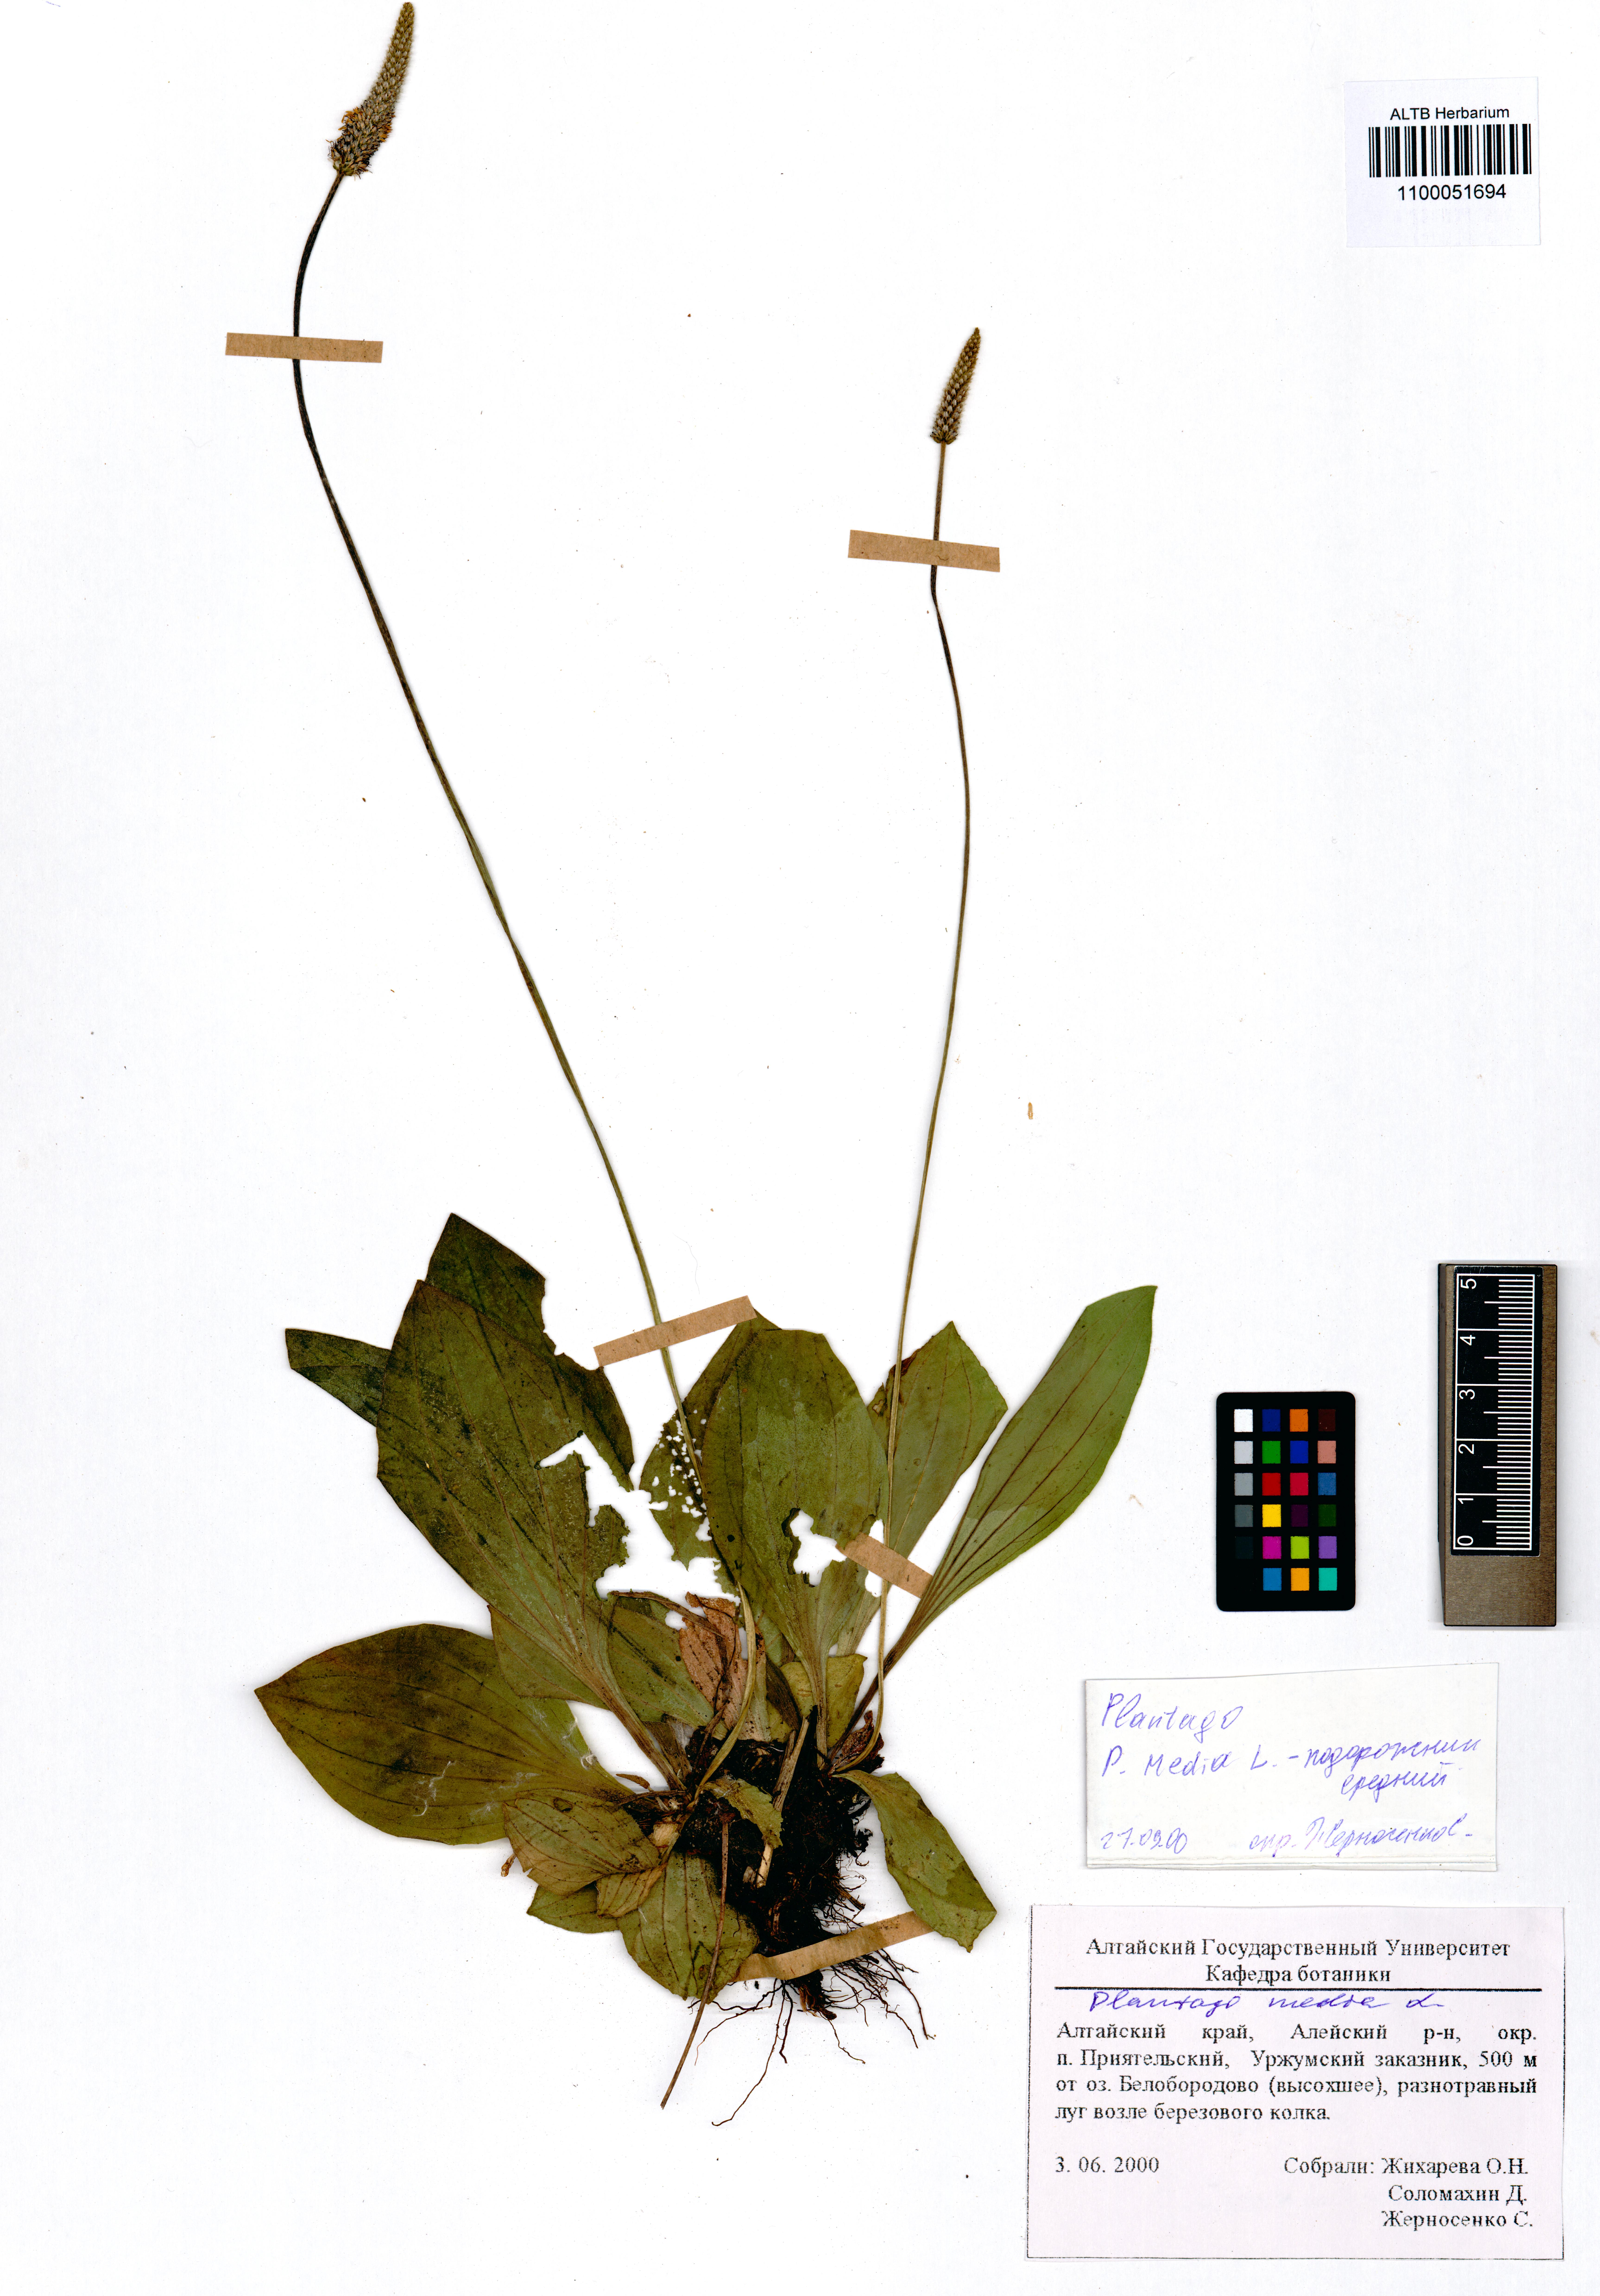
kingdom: Plantae
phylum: Tracheophyta
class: Magnoliopsida
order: Lamiales
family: Plantaginaceae
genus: Plantago
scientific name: Plantago media
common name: Hoary plantain
